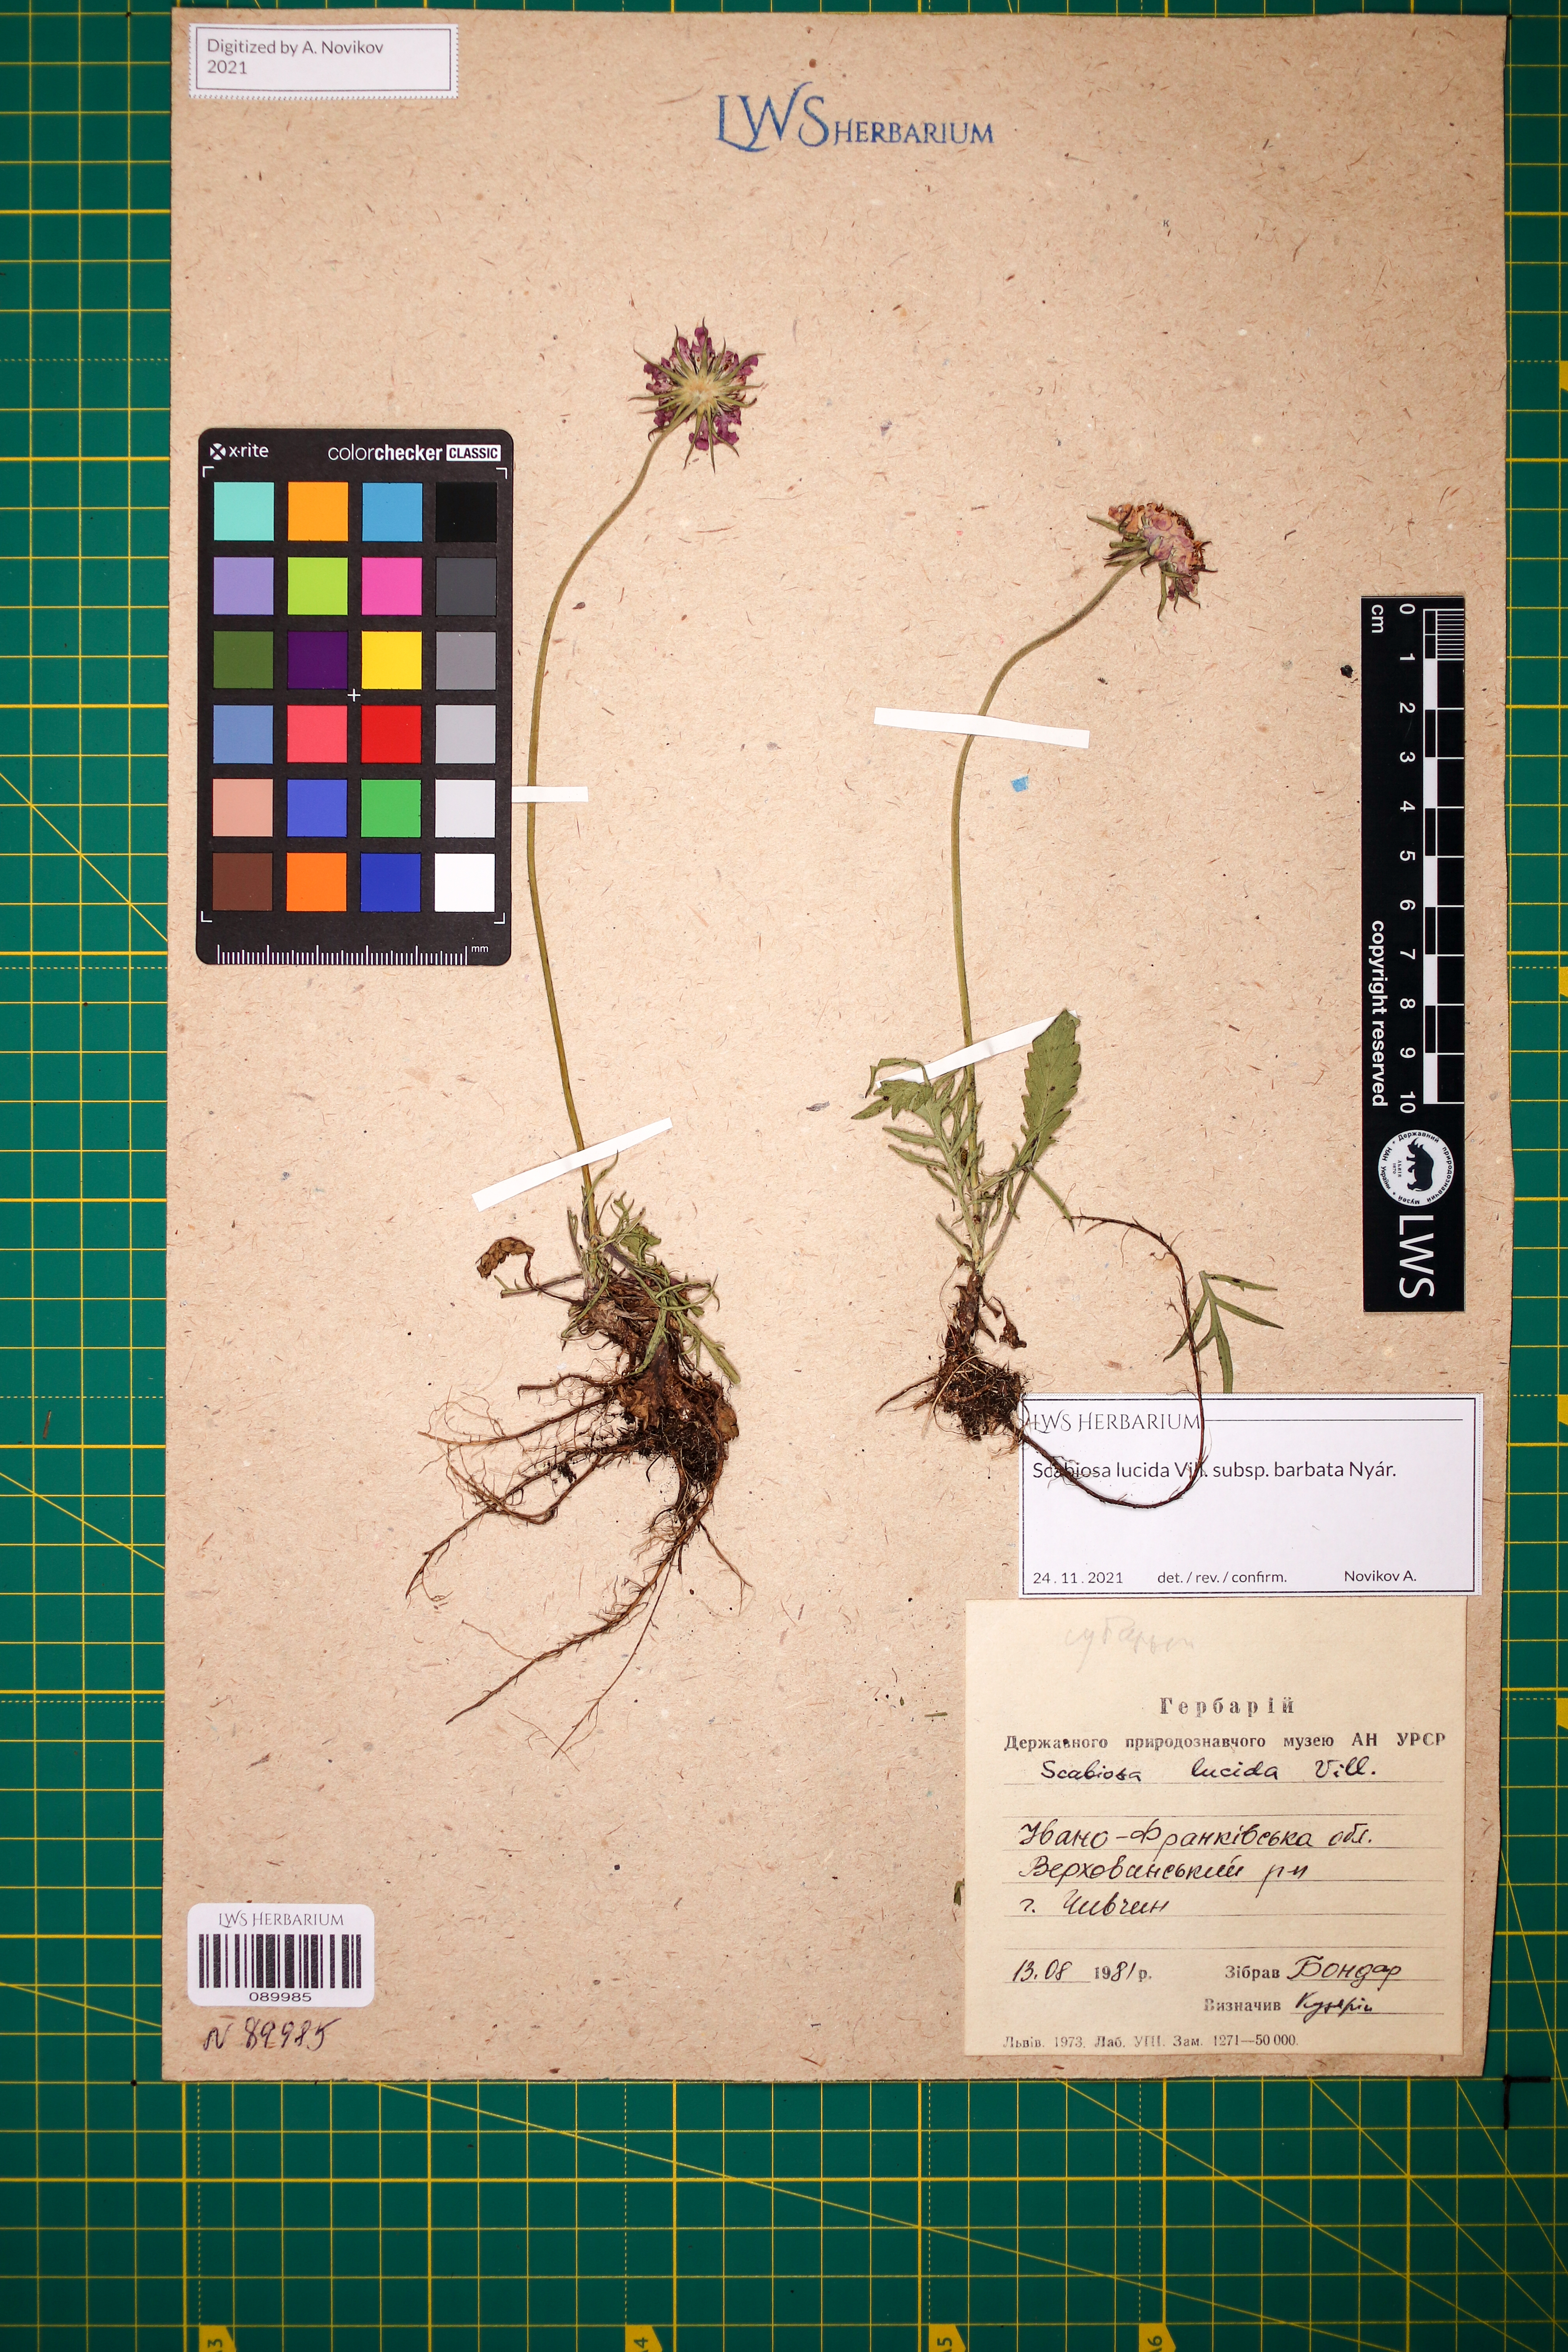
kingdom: Plantae
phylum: Tracheophyta
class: Magnoliopsida
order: Dipsacales
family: Caprifoliaceae
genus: Scabiosa
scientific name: Scabiosa lucida
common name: Shining scabious
